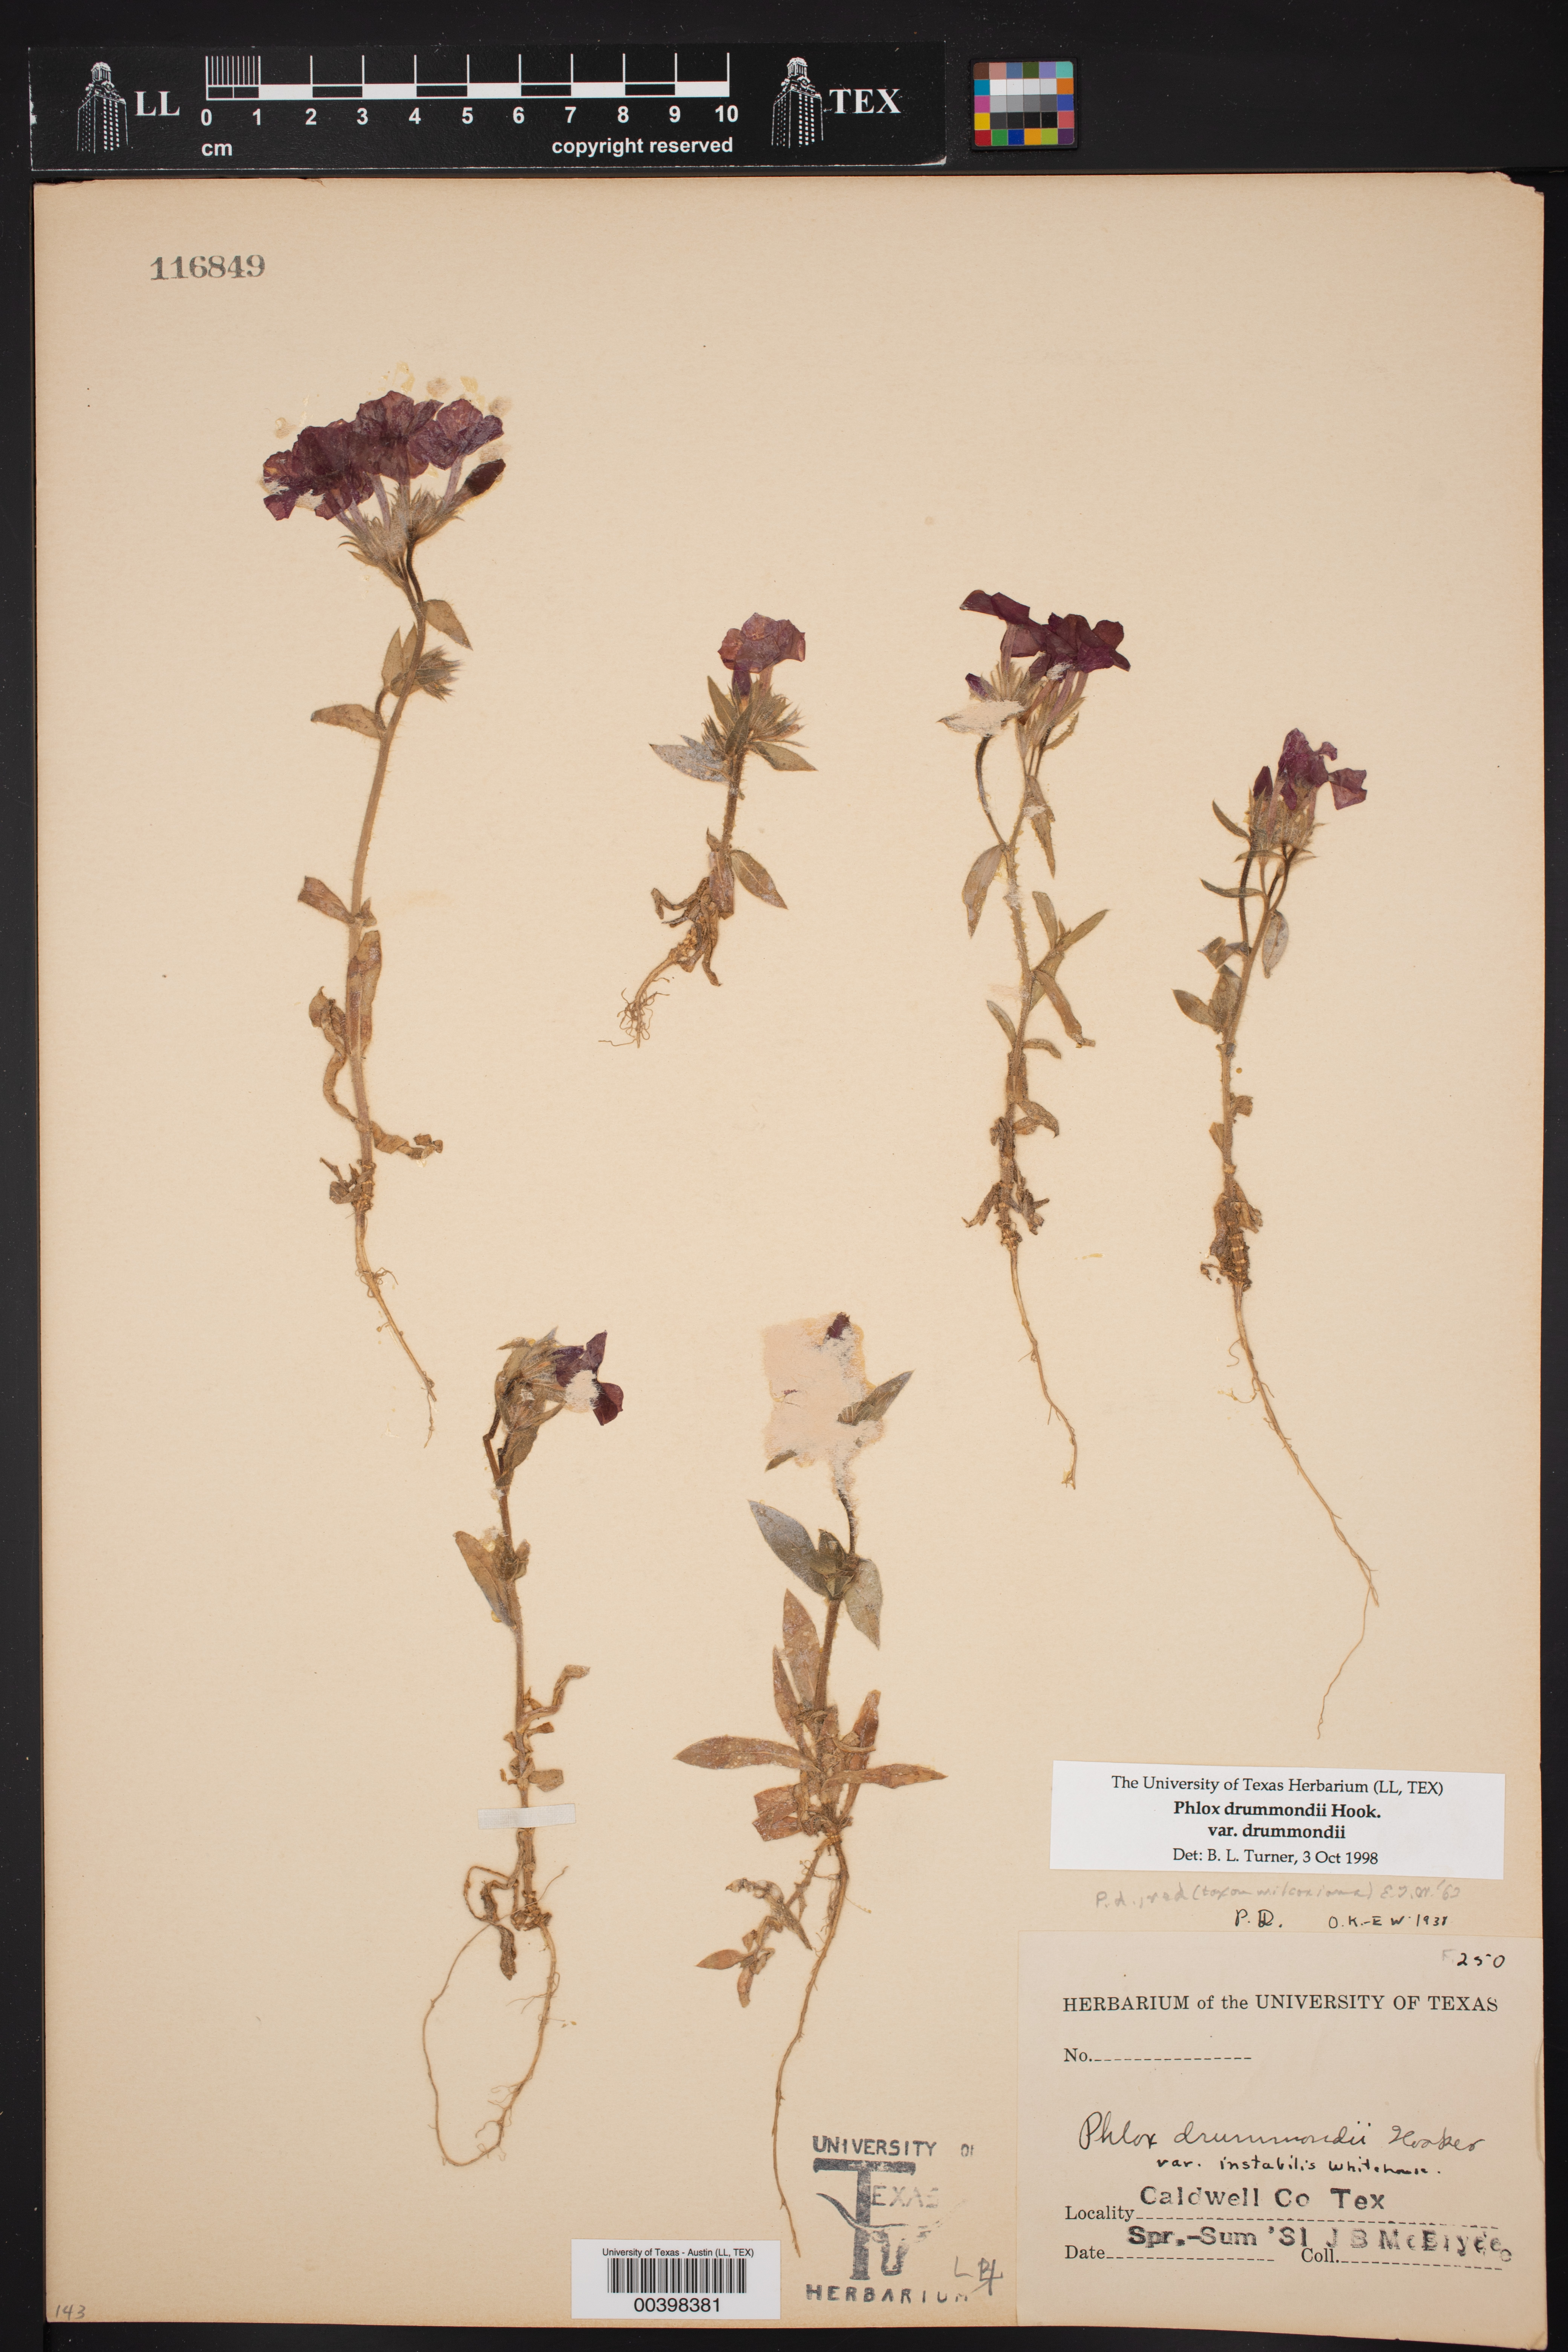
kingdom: Plantae
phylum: Tracheophyta
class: Magnoliopsida
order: Ericales
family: Polemoniaceae
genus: Phlox
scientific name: Phlox drummondii
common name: Drummond's phlox
